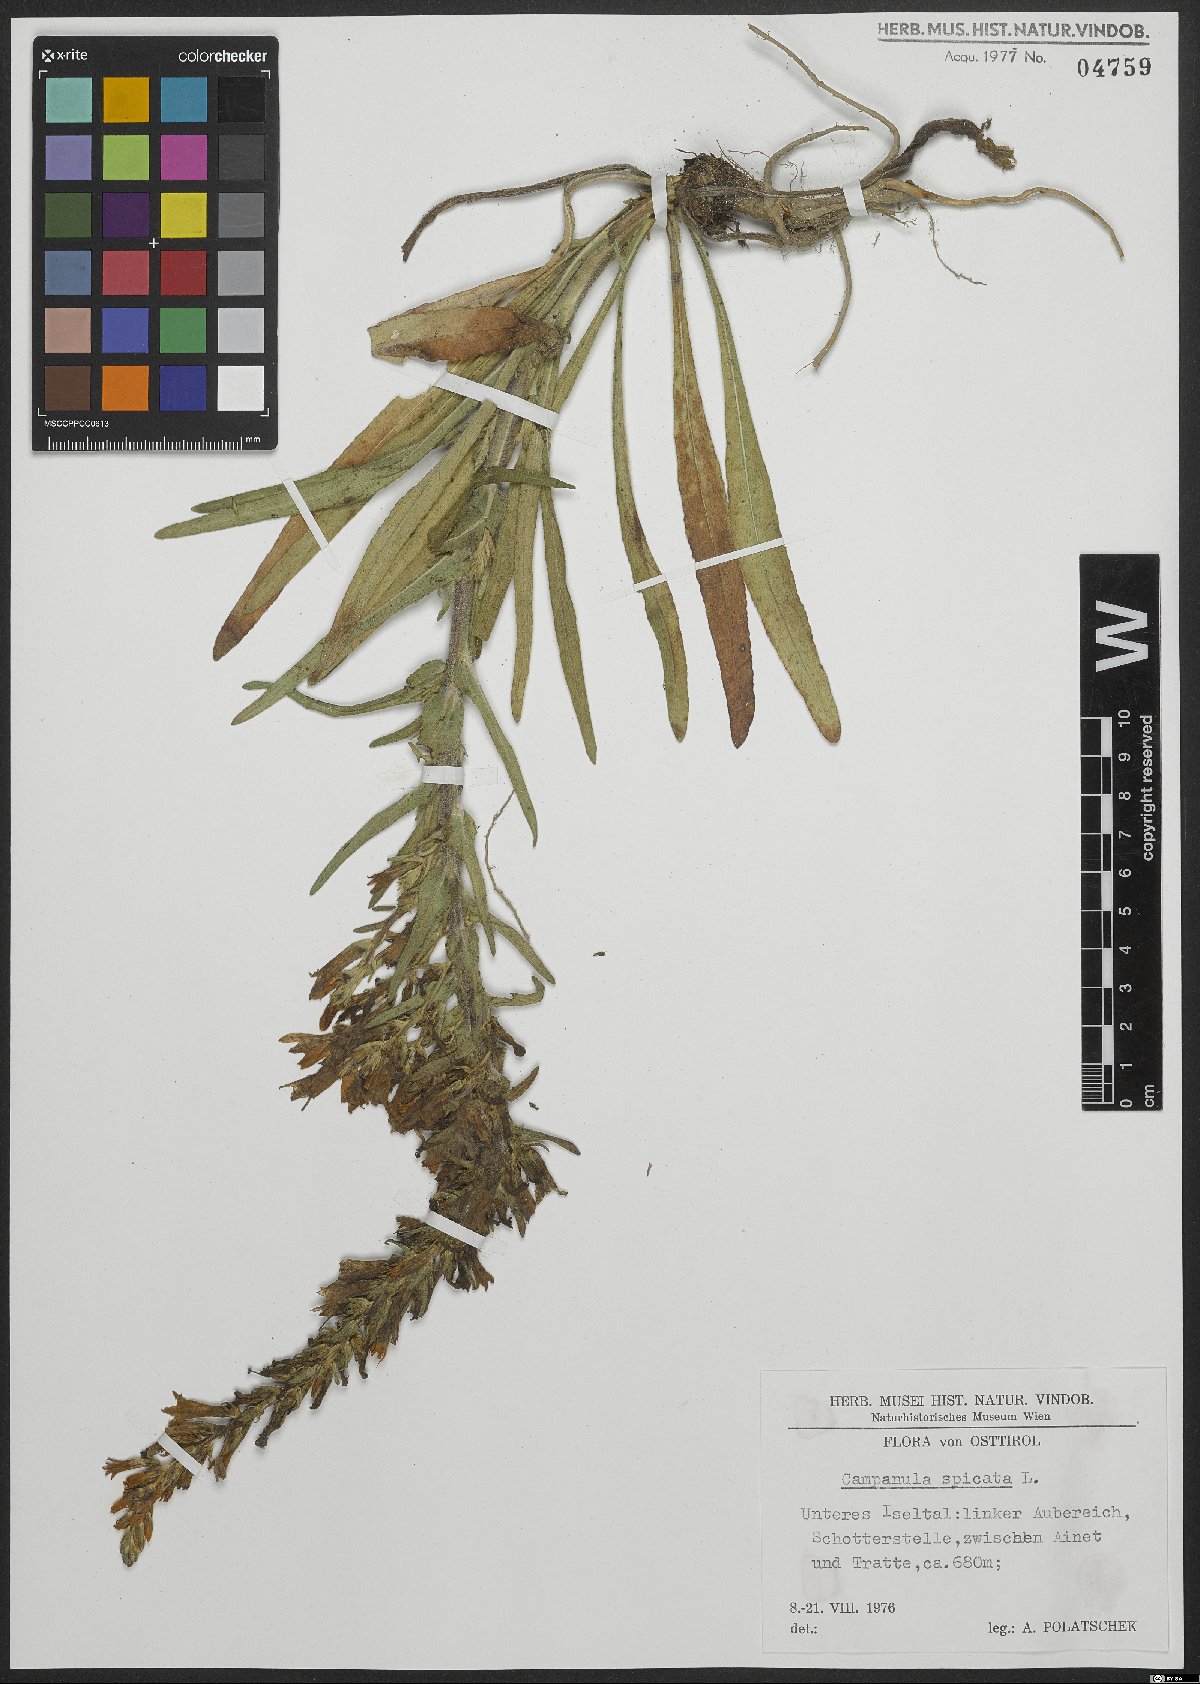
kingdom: Plantae
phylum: Tracheophyta
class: Magnoliopsida
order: Asterales
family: Campanulaceae
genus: Campanula
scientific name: Campanula spicata
